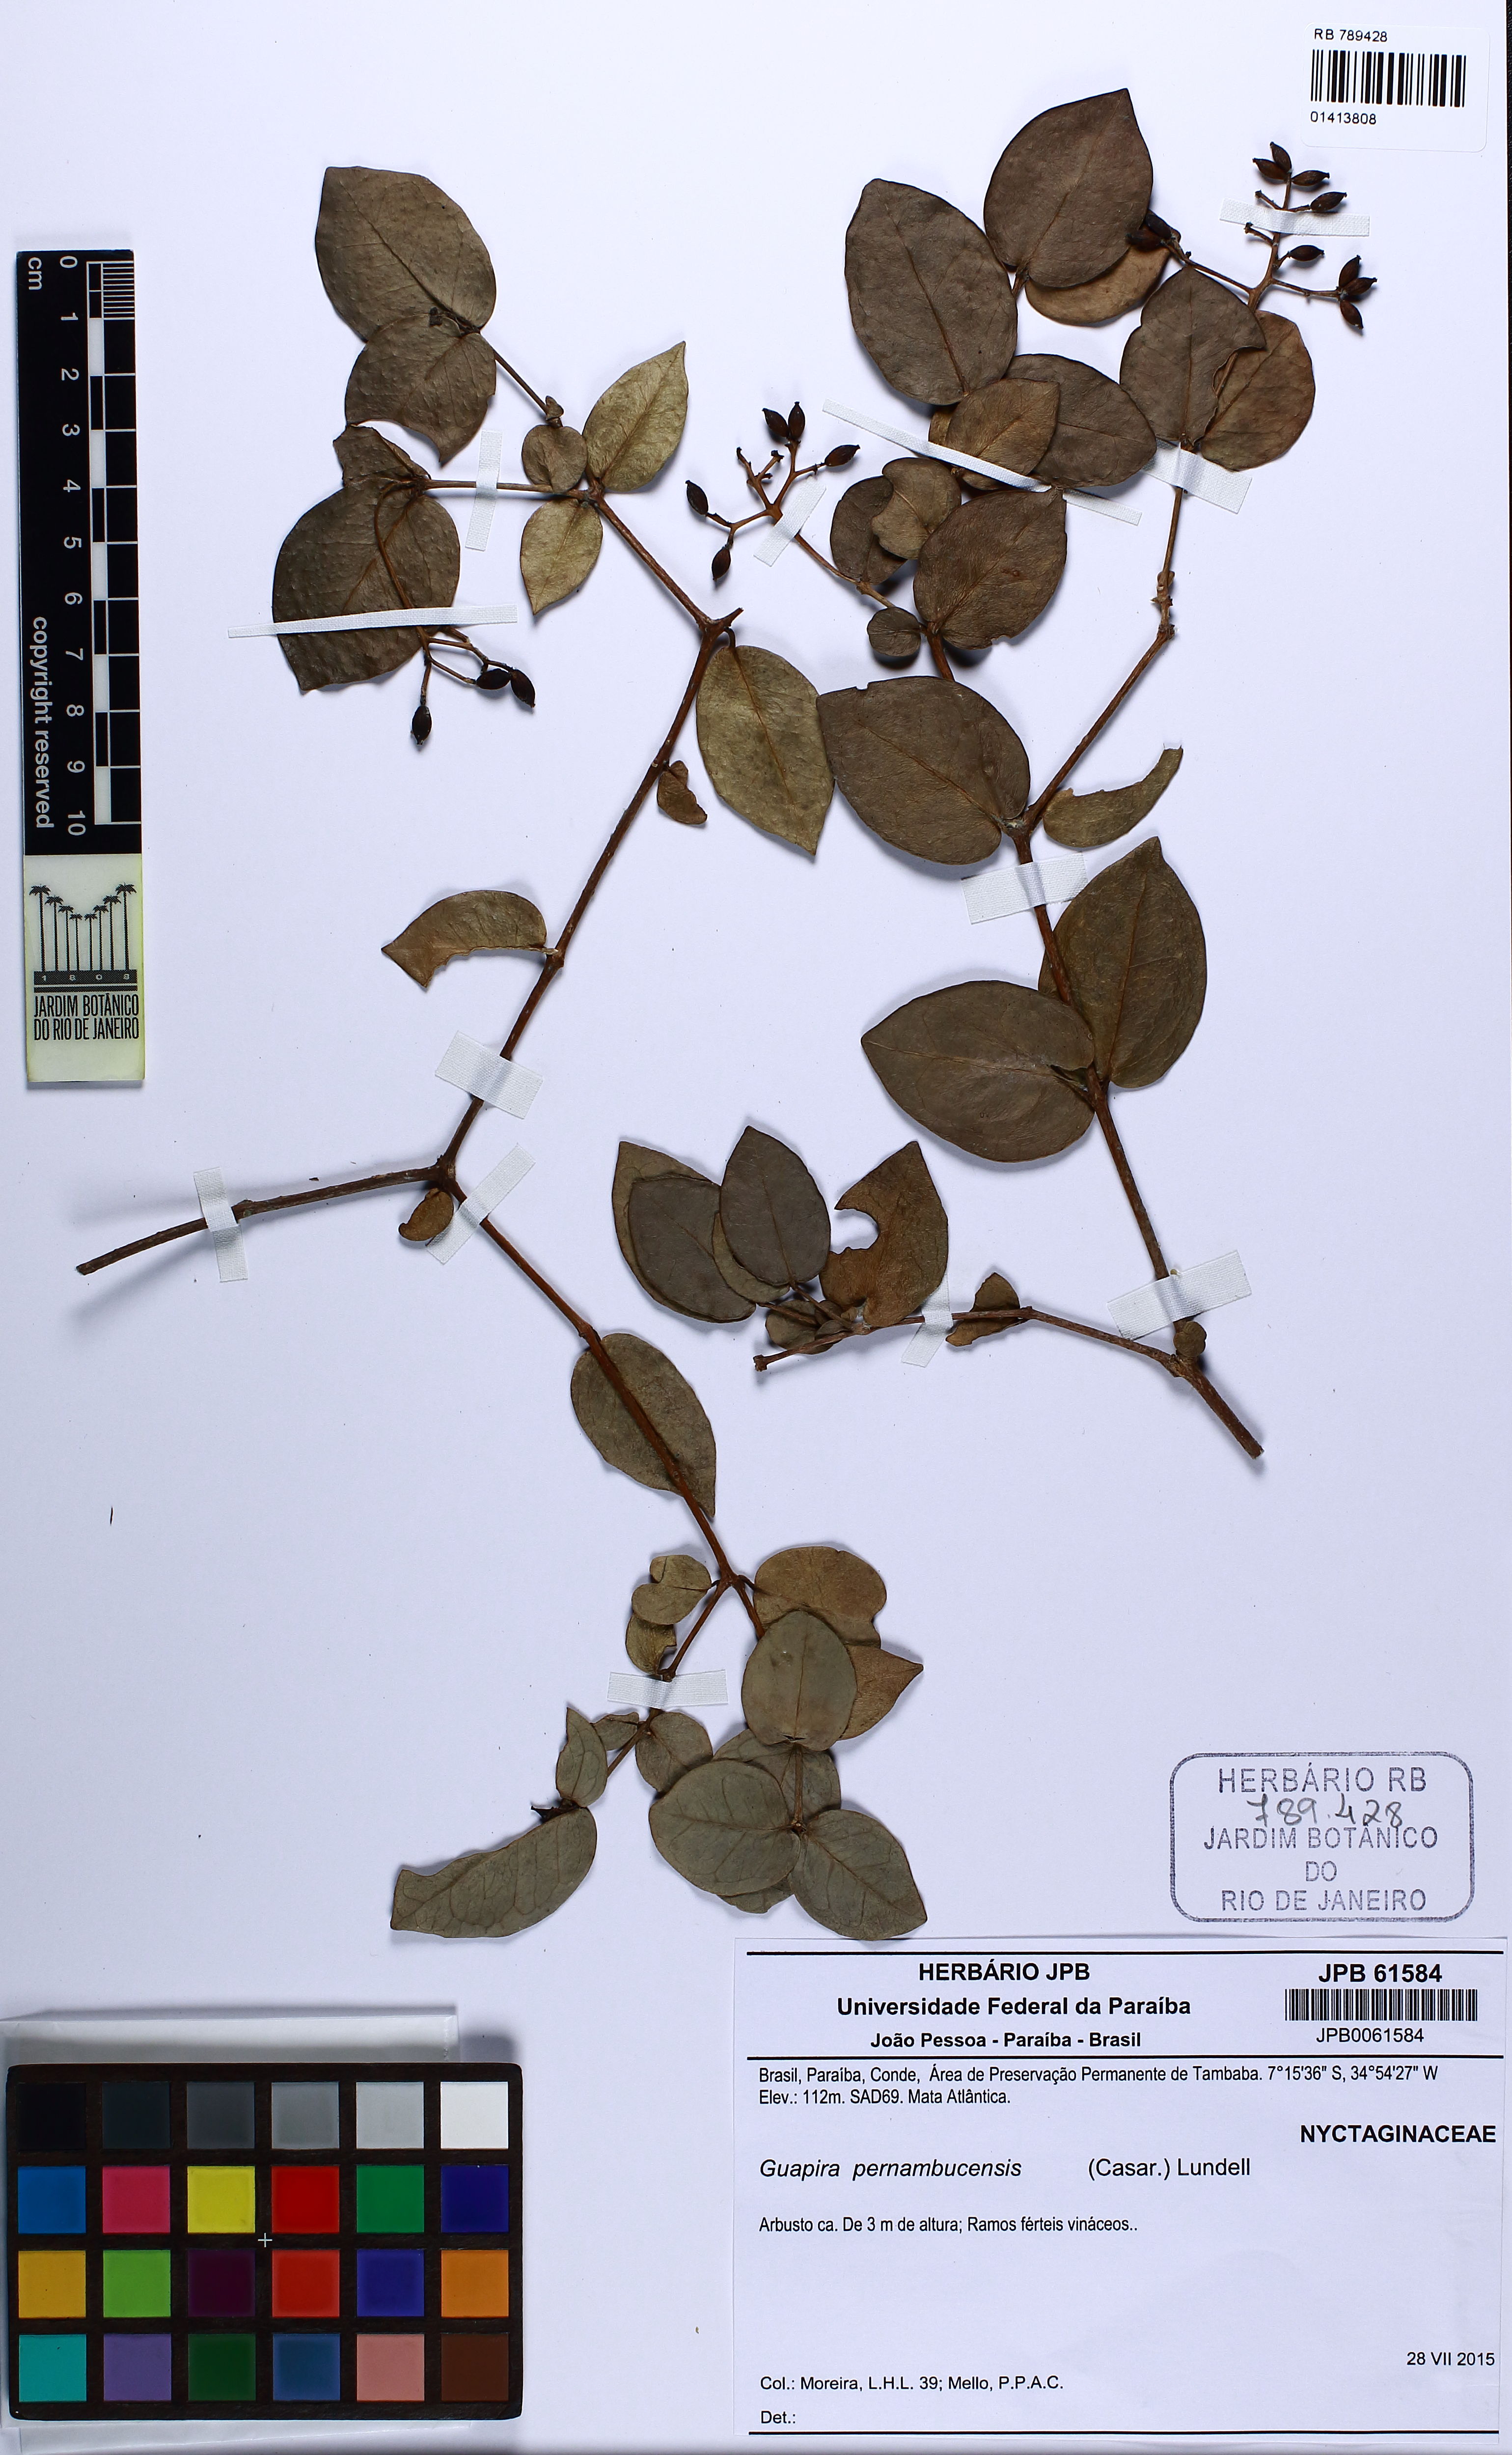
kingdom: Plantae
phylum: Tracheophyta
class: Magnoliopsida
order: Caryophyllales
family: Nyctaginaceae
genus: Guapira
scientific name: Guapira pernambucensis
